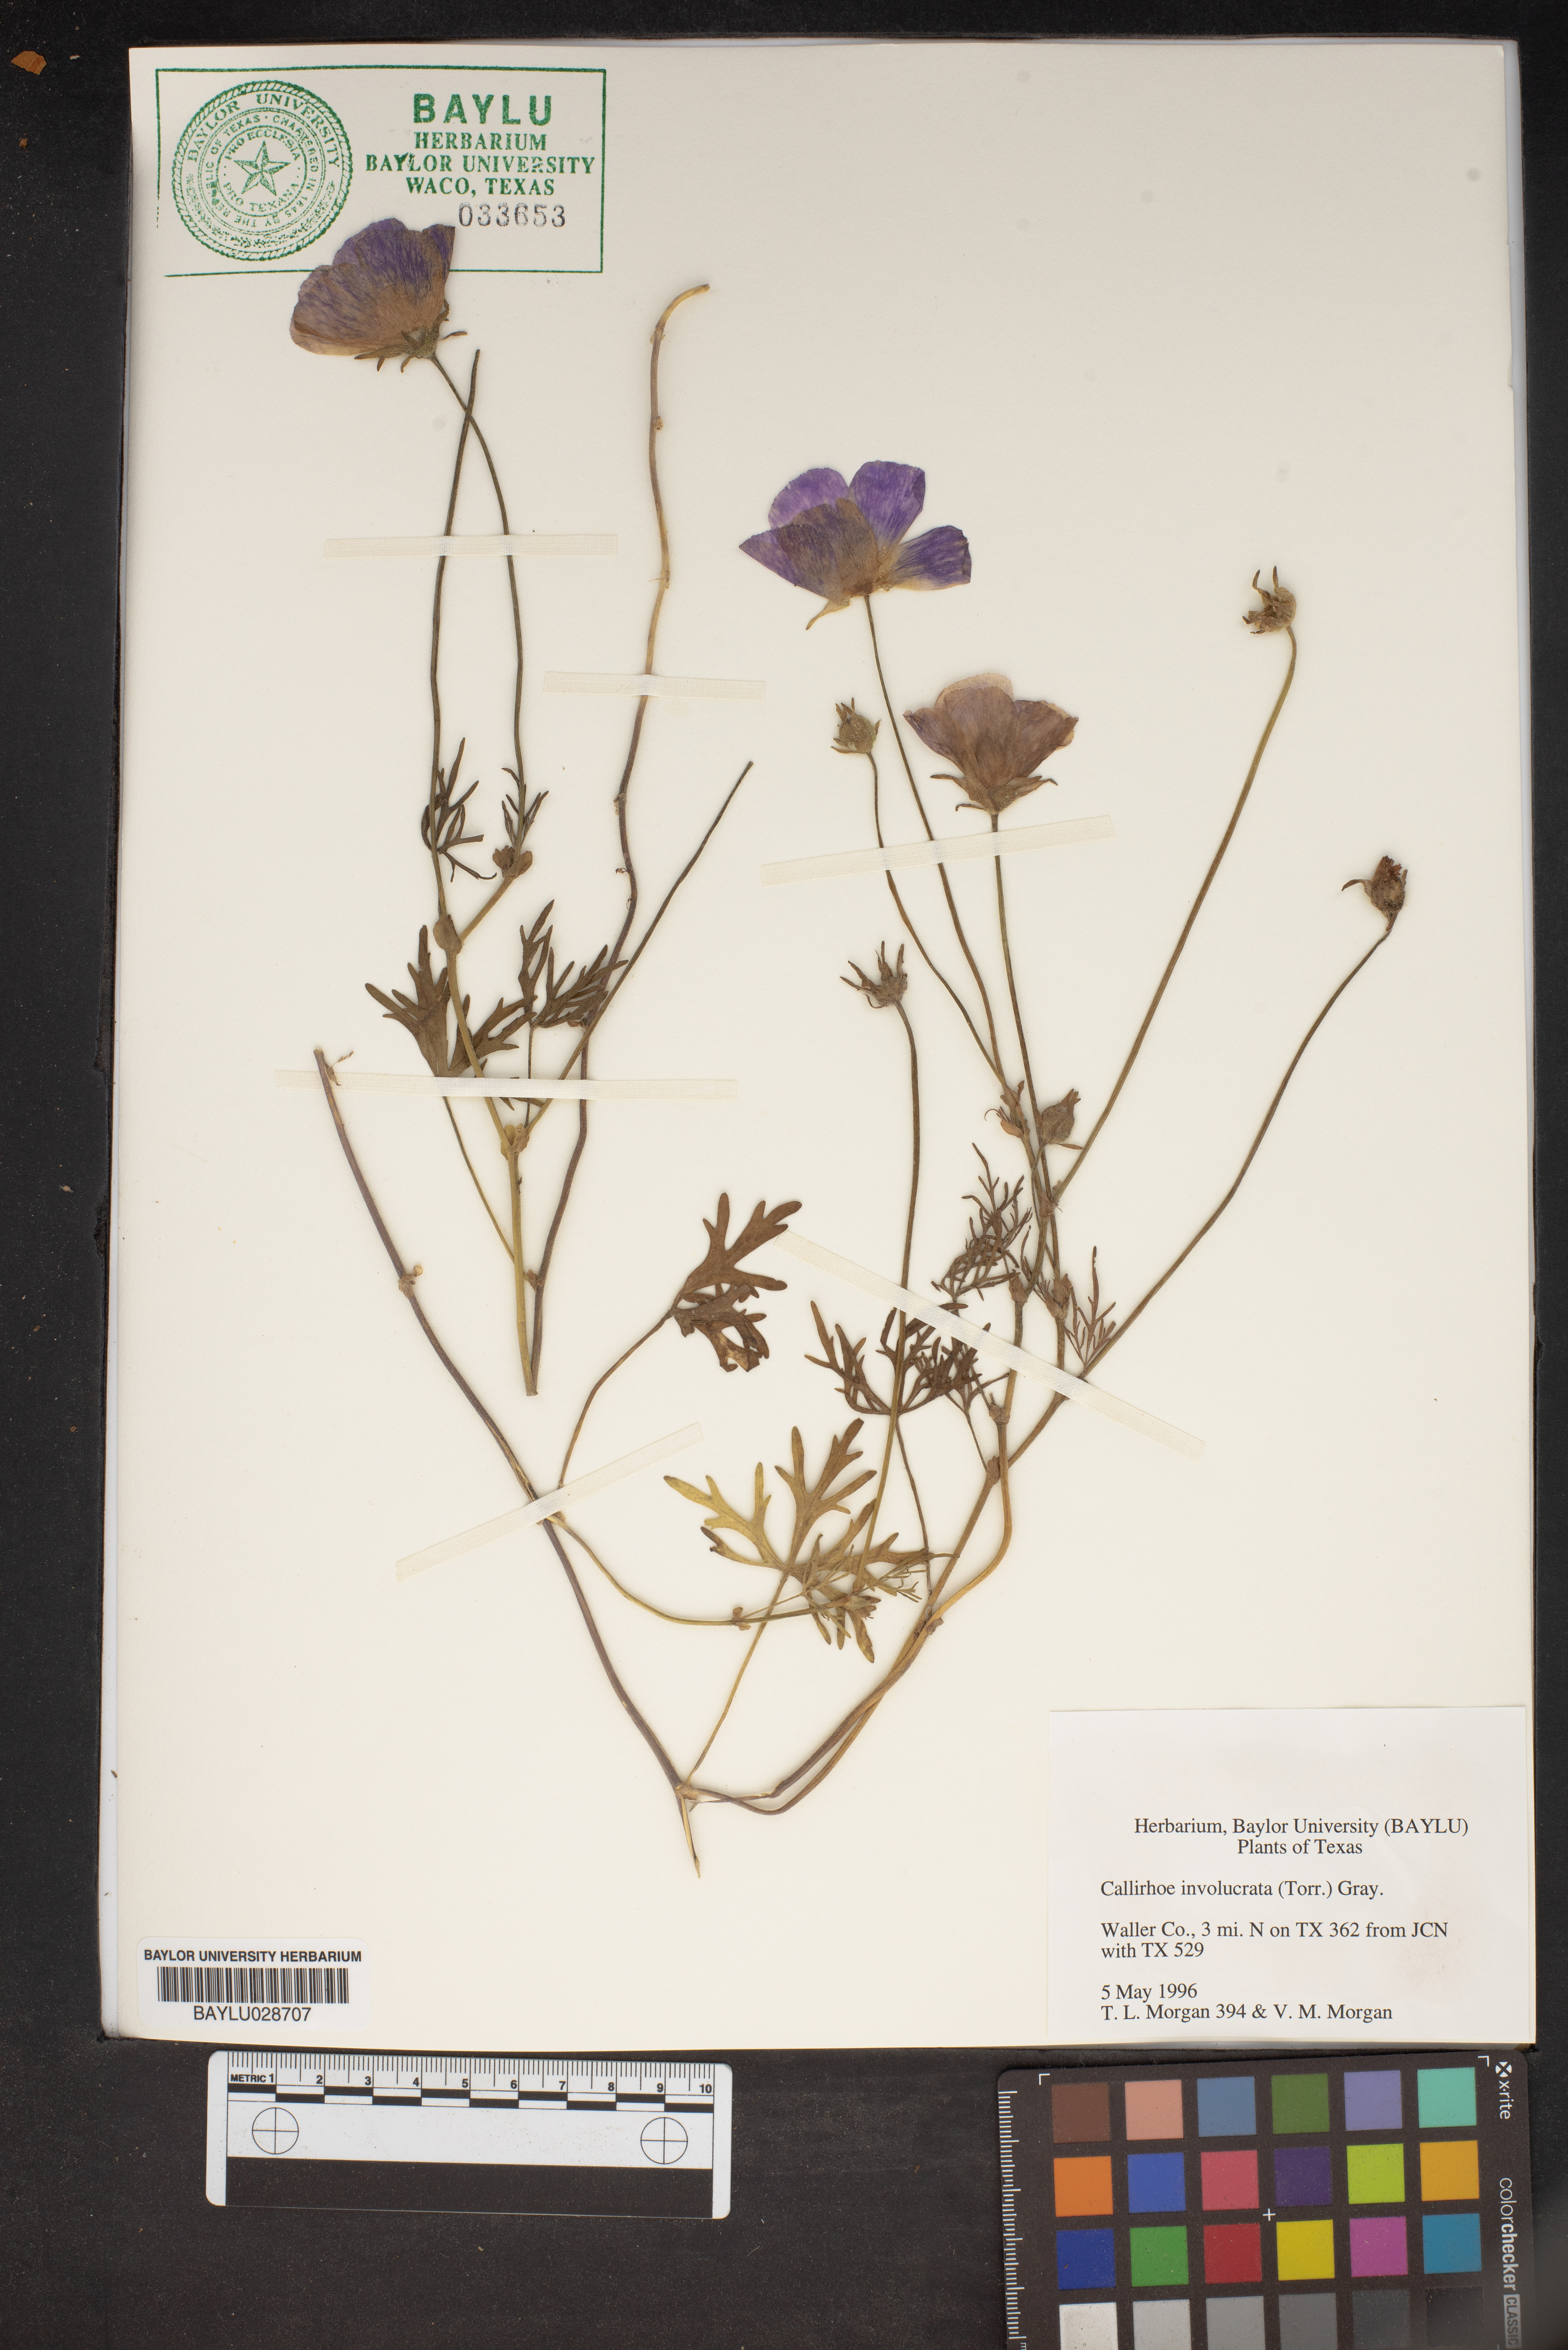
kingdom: Plantae
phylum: Tracheophyta
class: Magnoliopsida
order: Malvales
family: Malvaceae
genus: Callirhoe
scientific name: Callirhoe involucrata
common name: Purple poppy-mallow
